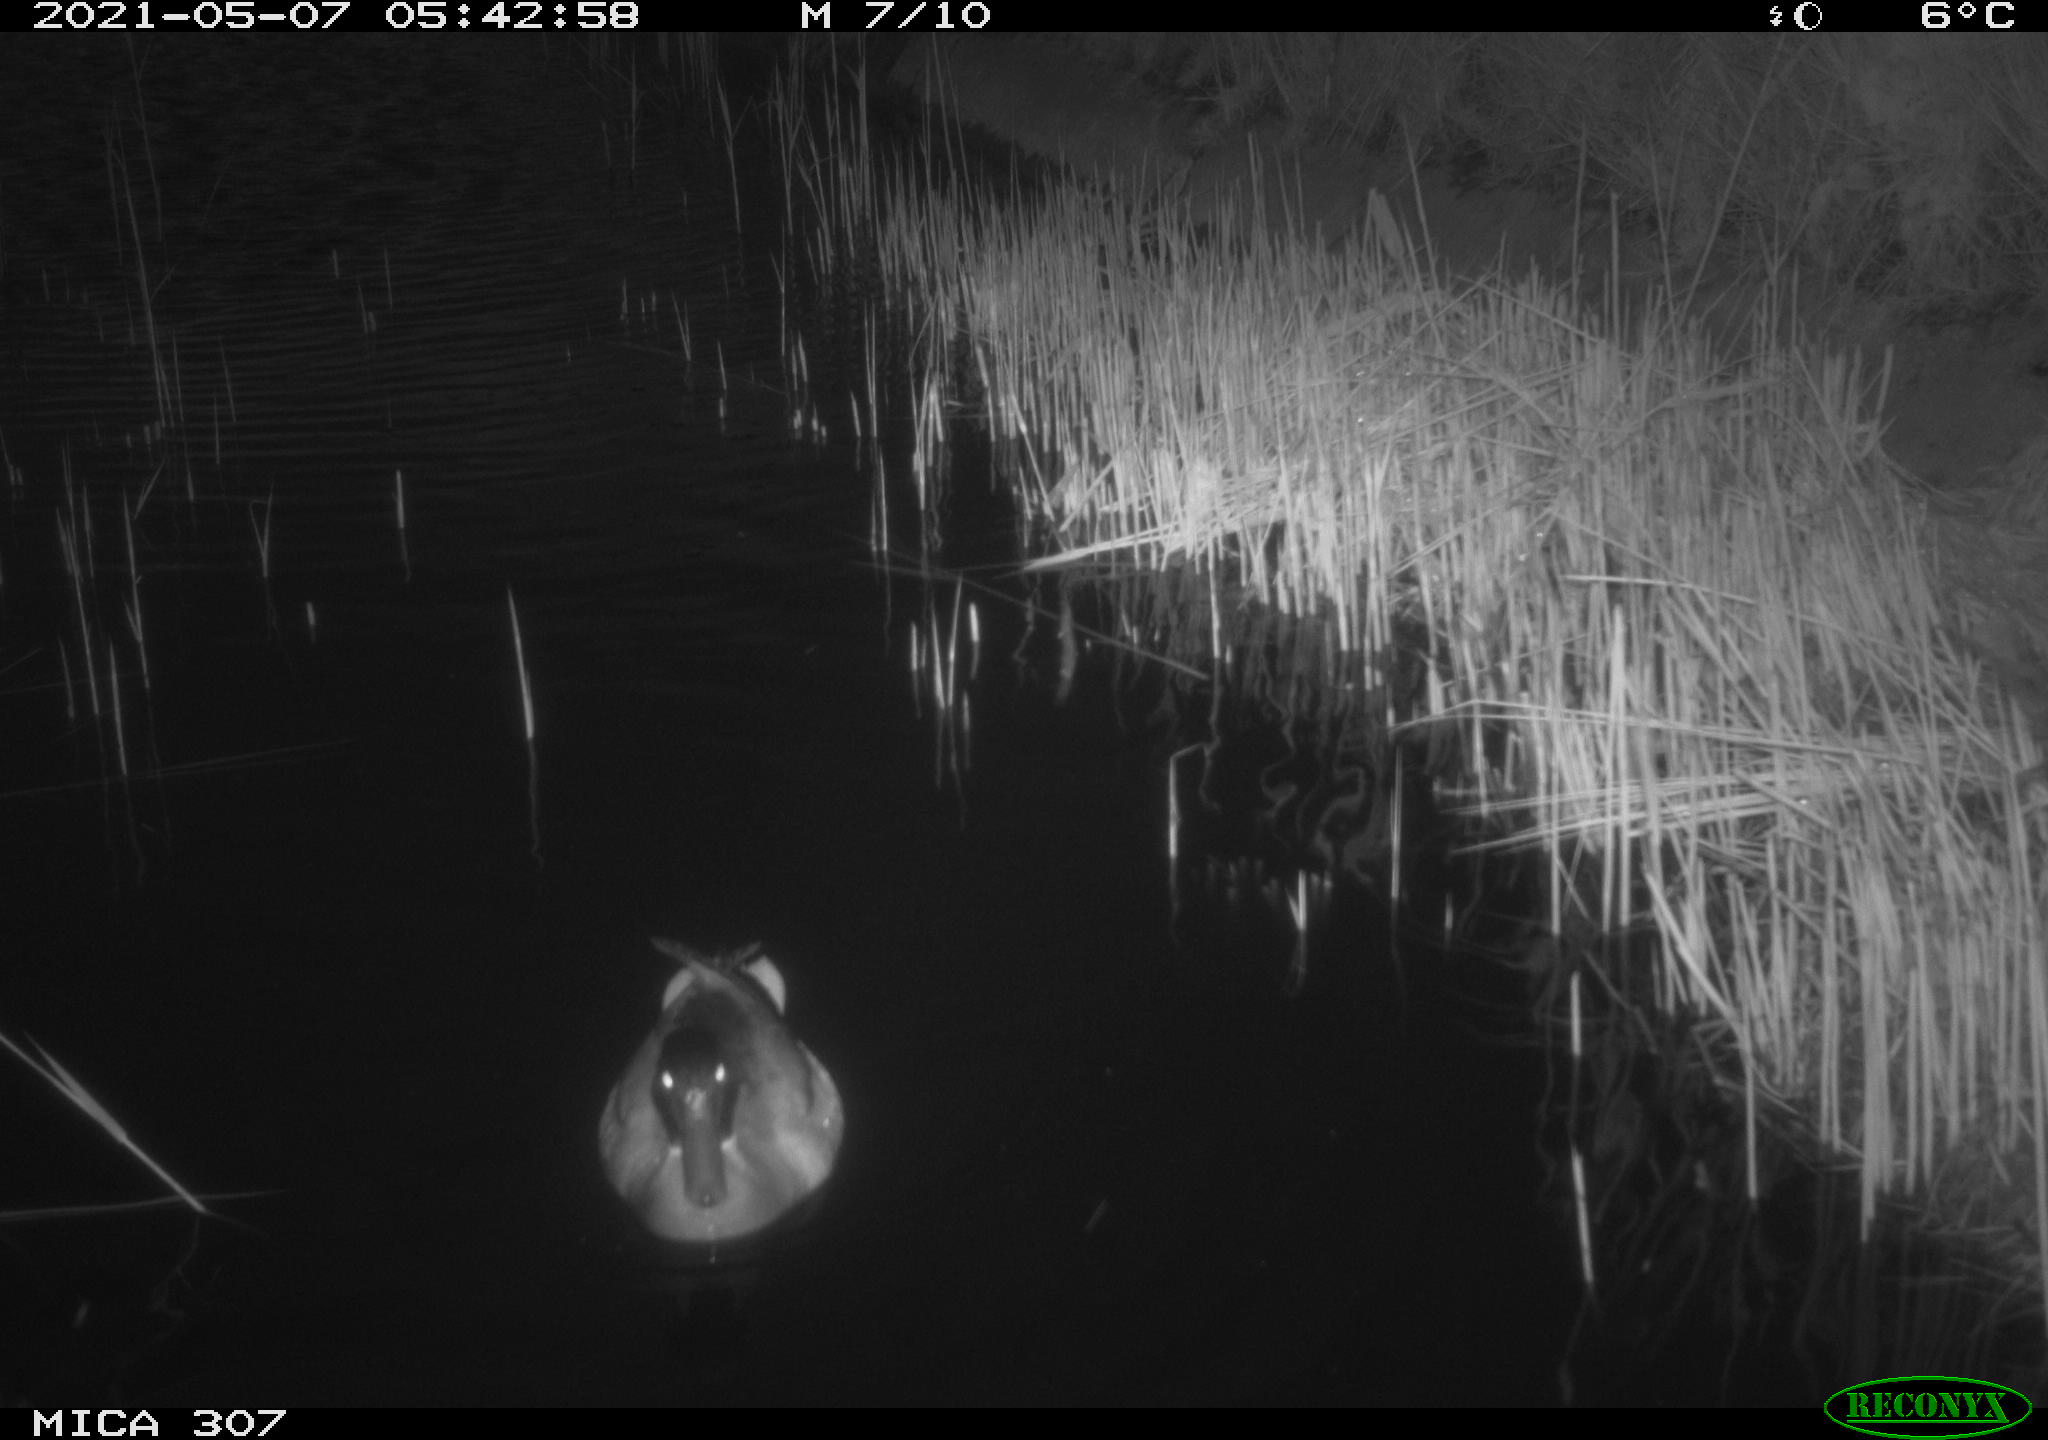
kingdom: Animalia
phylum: Chordata
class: Aves
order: Anseriformes
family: Anatidae
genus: Anas
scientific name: Anas platyrhynchos
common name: Mallard
